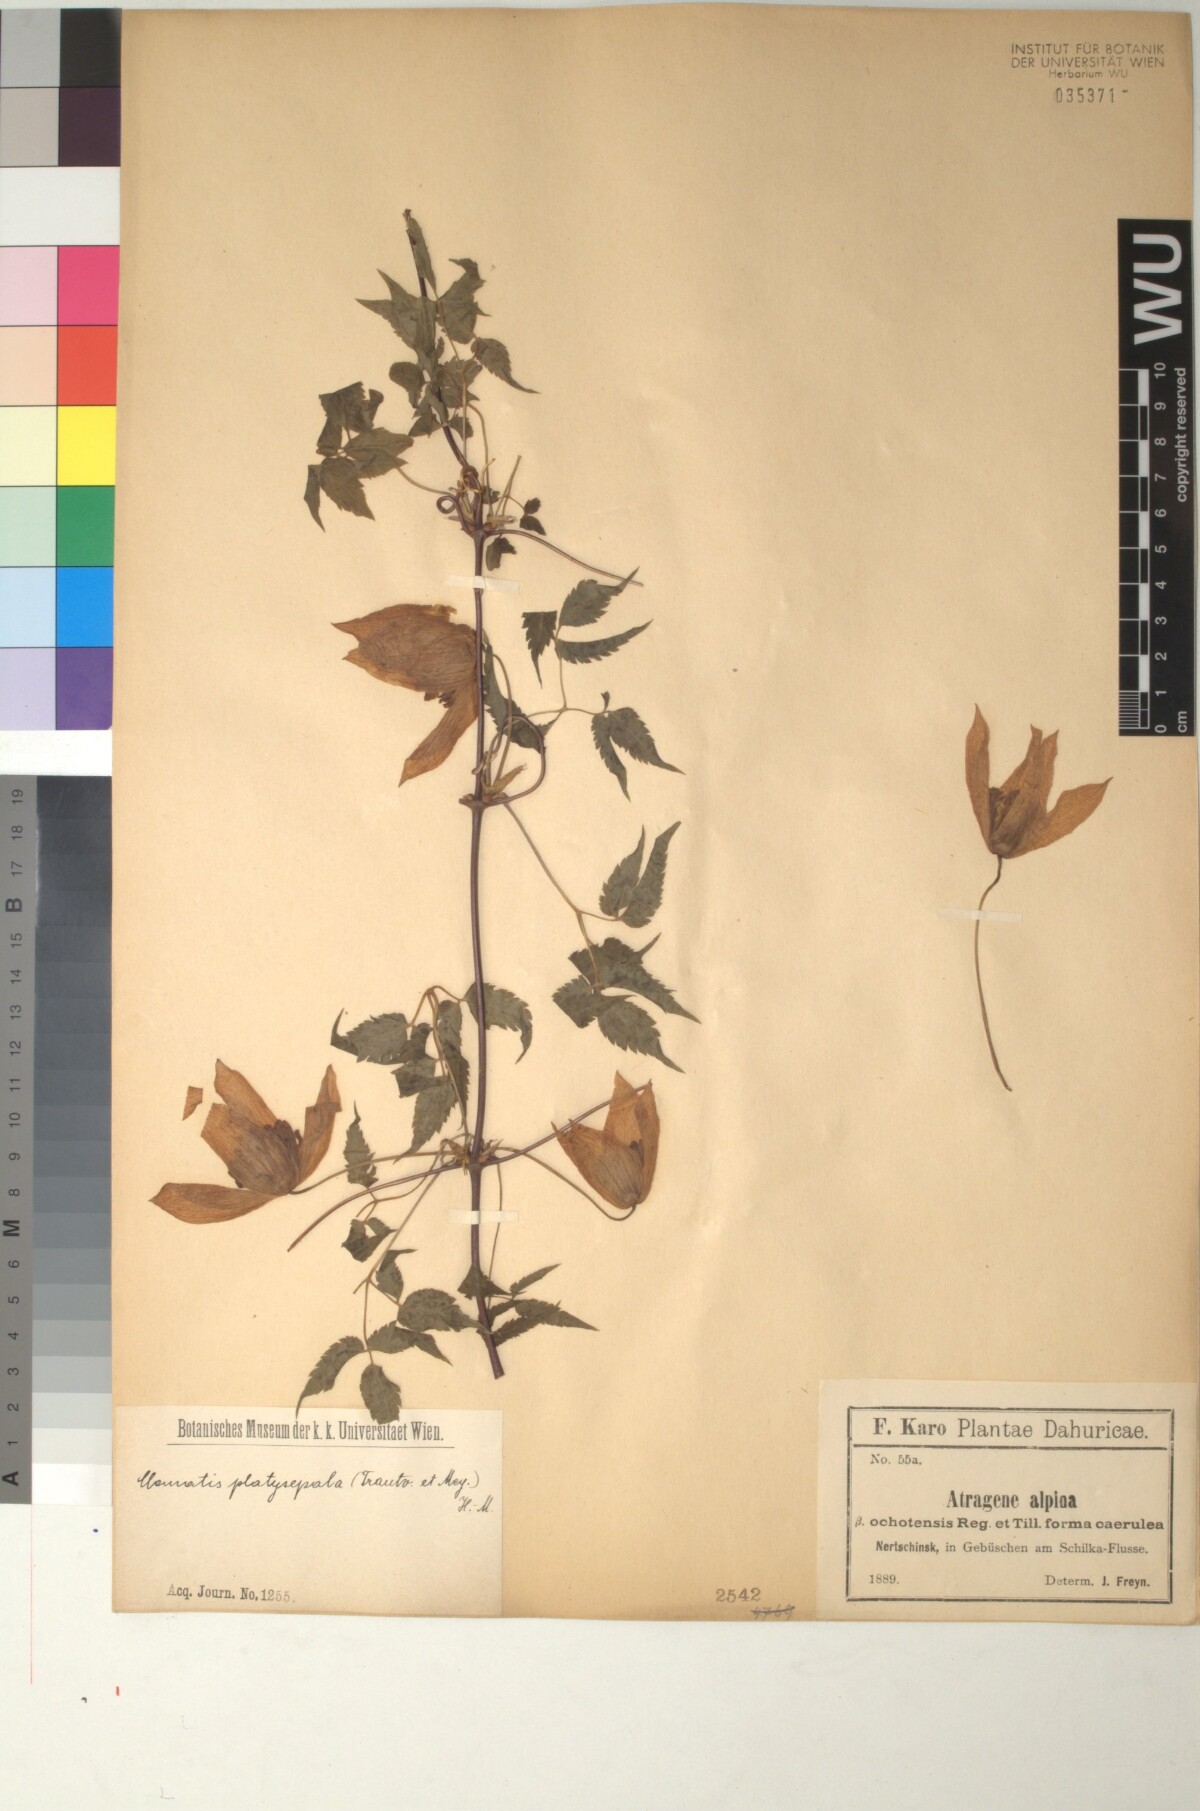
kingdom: Plantae
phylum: Tracheophyta
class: Magnoliopsida
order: Ranunculales
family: Ranunculaceae
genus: Clematis
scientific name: Clematis ochotensis
